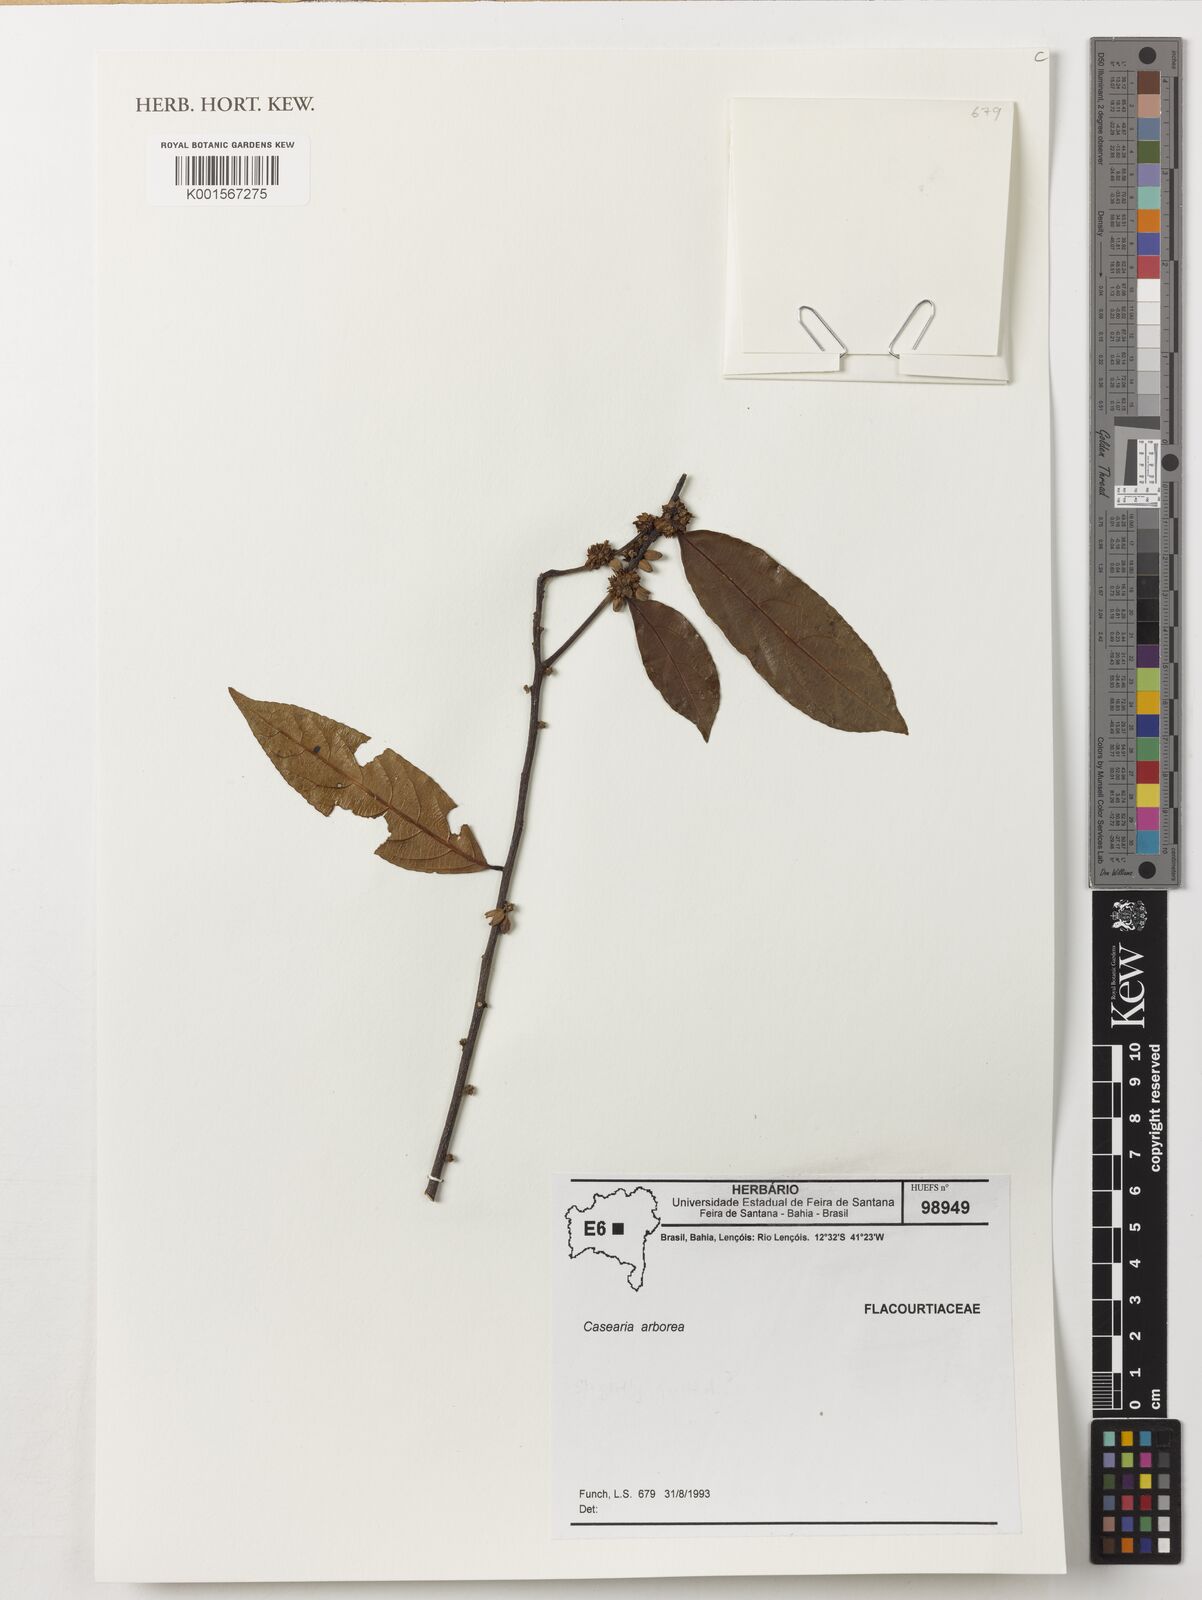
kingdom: Plantae
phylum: Tracheophyta
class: Magnoliopsida
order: Malpighiales
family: Salicaceae
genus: Casearia
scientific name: Casearia arborea
